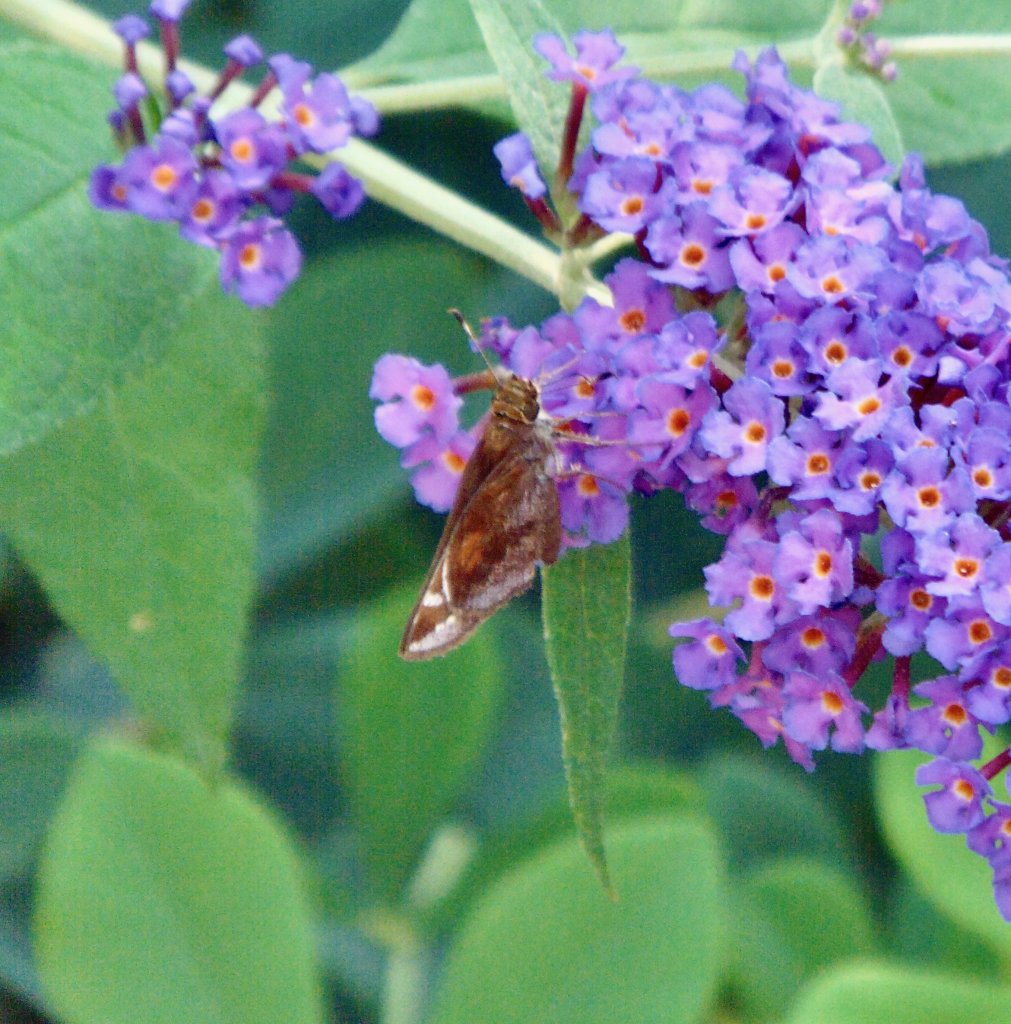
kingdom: Animalia
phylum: Arthropoda
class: Insecta
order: Lepidoptera
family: Hesperiidae
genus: Lon
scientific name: Lon zabulon
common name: Zabulon Skipper
